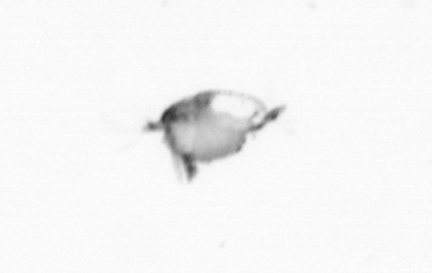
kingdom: Animalia
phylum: Annelida
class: Polychaeta
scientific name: Polychaeta
